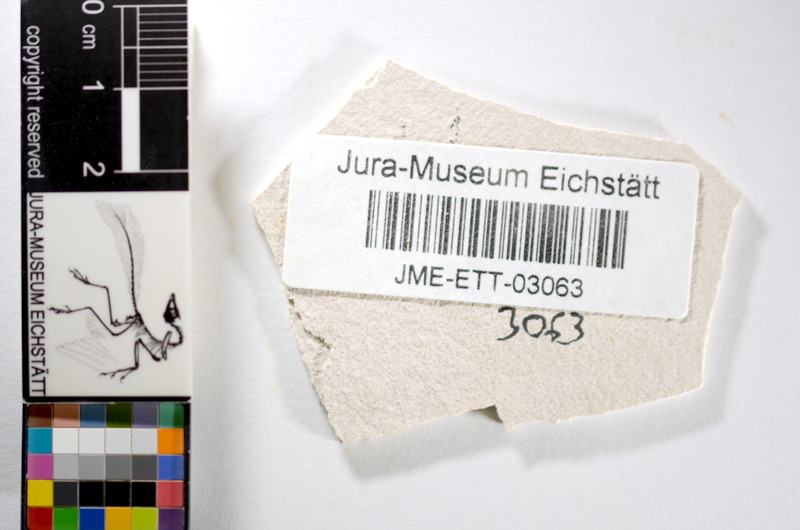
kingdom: Animalia
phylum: Chordata
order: Salmoniformes
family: Orthogonikleithridae
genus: Orthogonikleithrus
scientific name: Orthogonikleithrus hoelli
